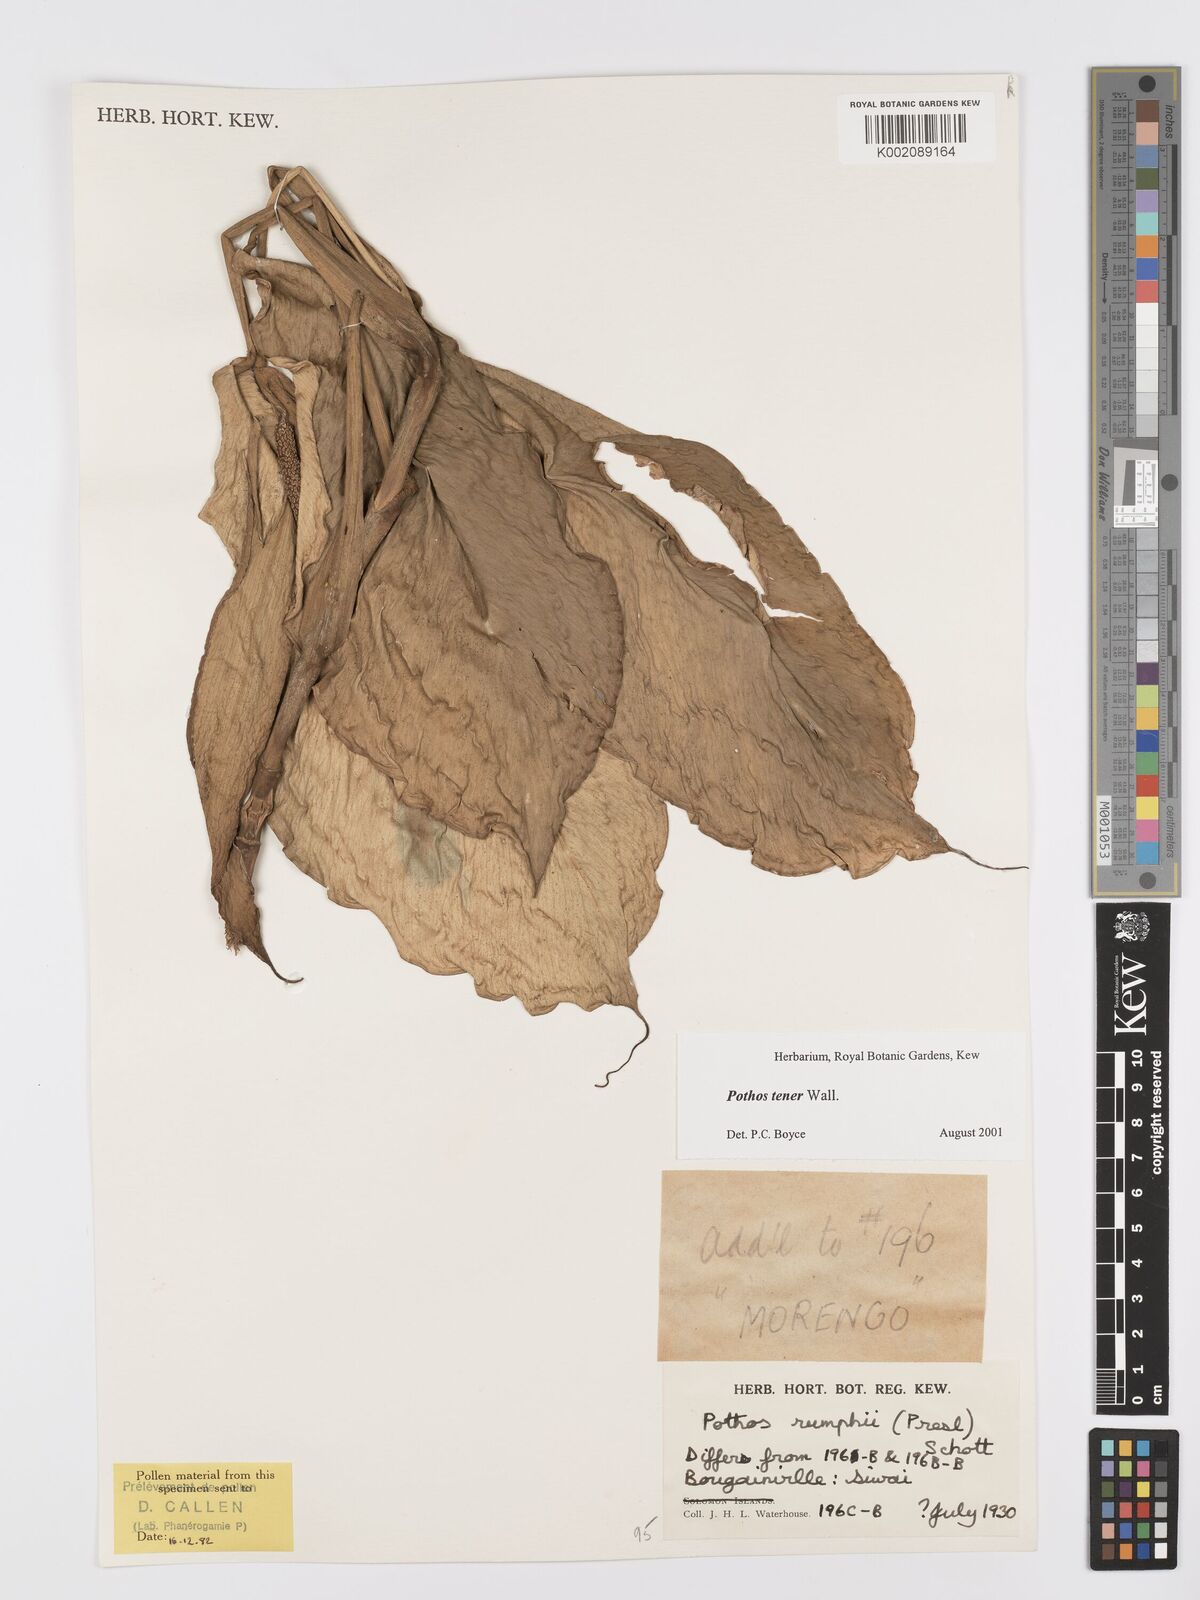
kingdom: Plantae
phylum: Tracheophyta
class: Liliopsida
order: Alismatales
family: Araceae
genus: Pothos
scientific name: Pothos tener
